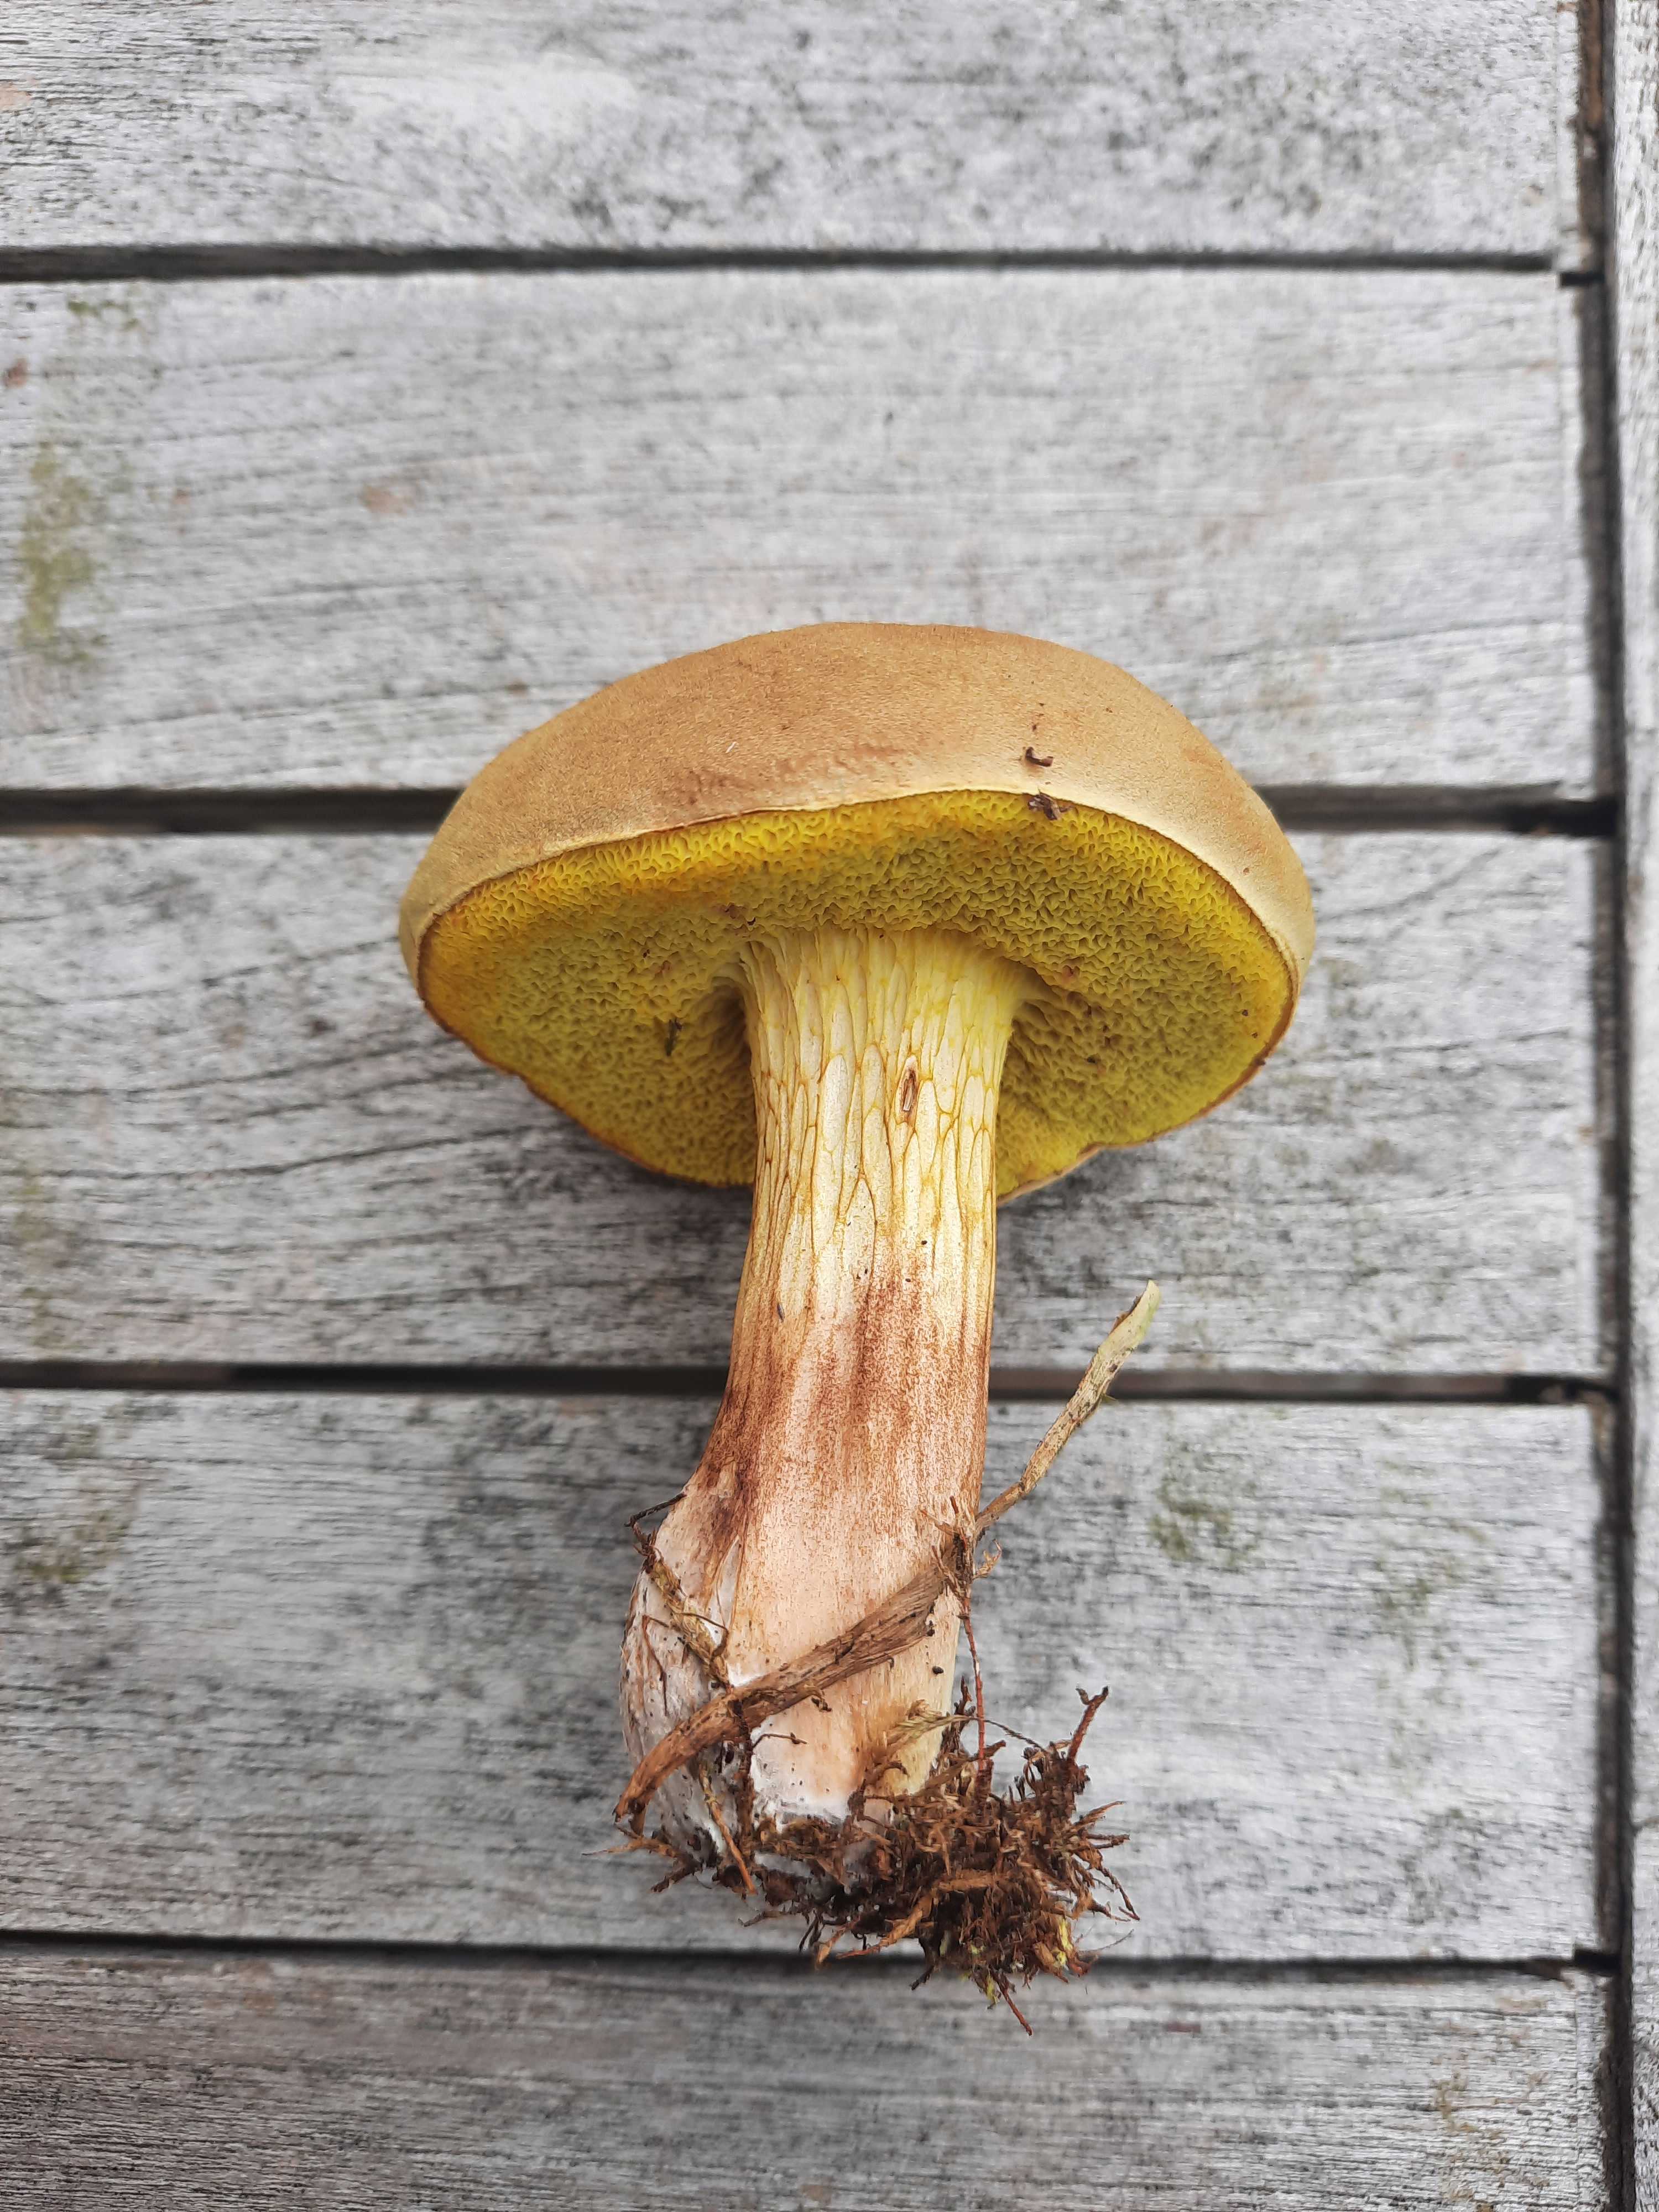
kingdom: Fungi
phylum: Basidiomycota
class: Agaricomycetes
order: Boletales
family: Boletaceae
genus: Xerocomus
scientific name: Xerocomus ferrugineus
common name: vaskeskinds-rørhat
